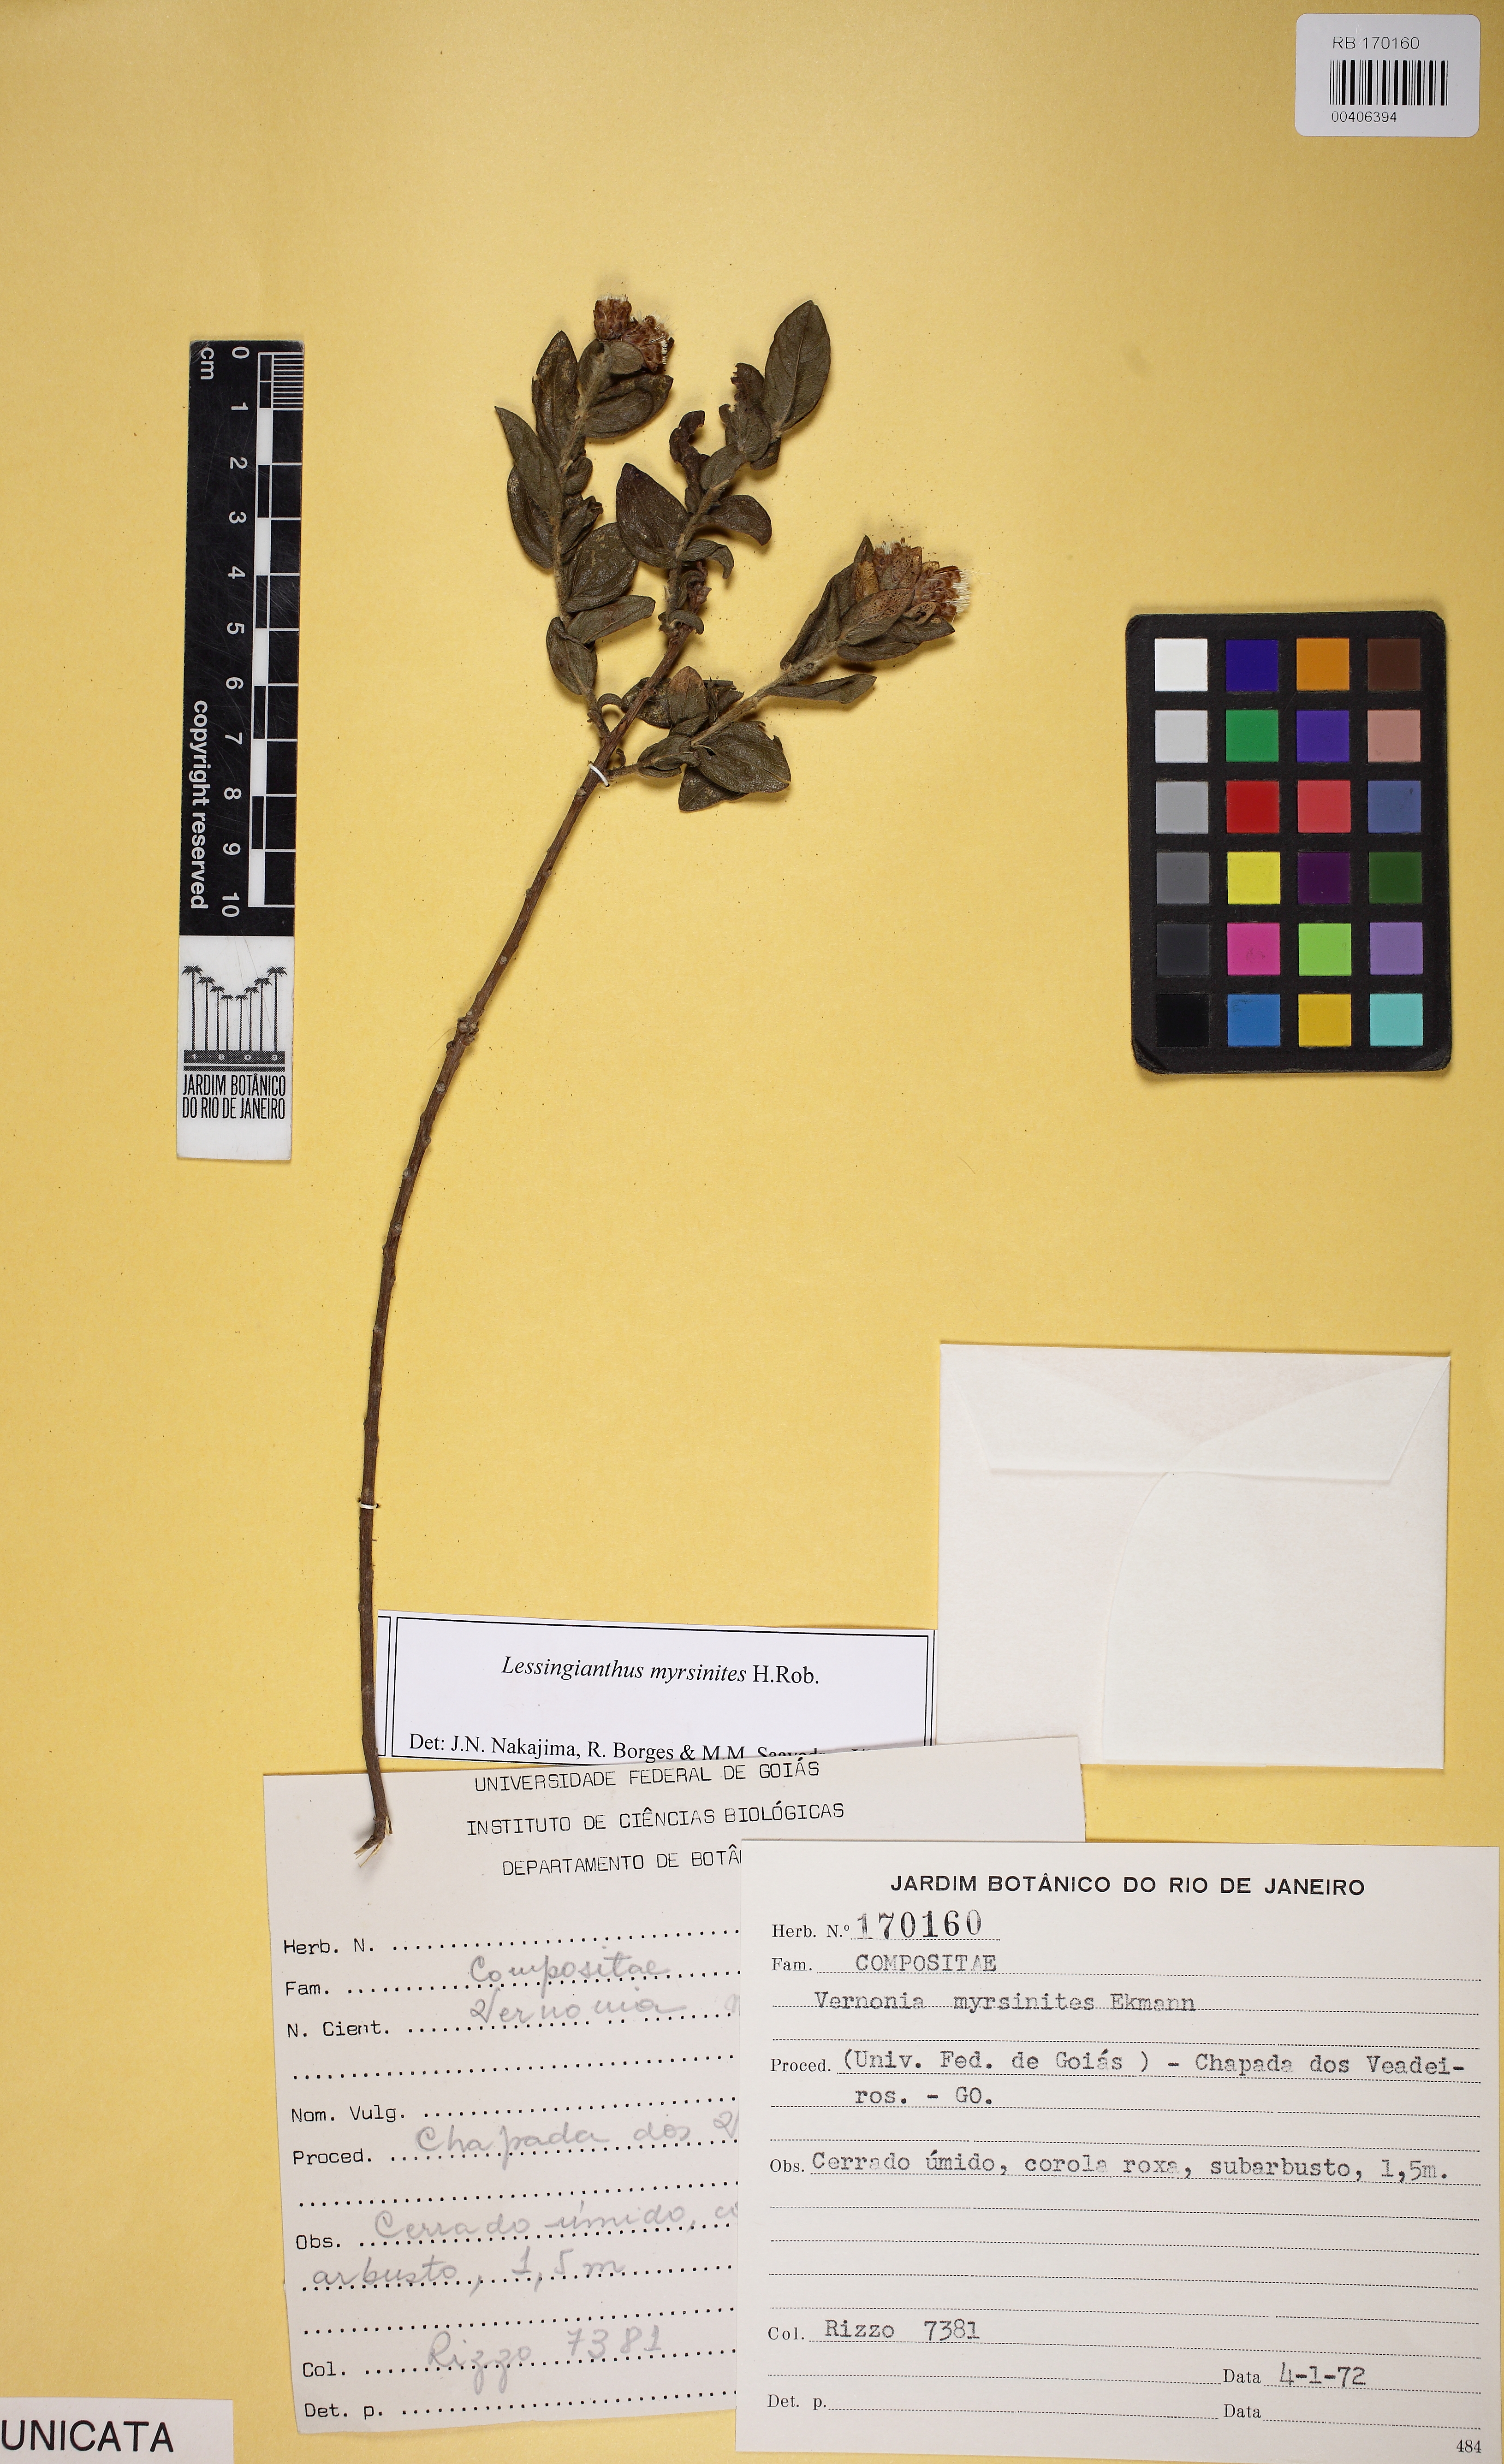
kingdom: Plantae
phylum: Tracheophyta
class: Magnoliopsida
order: Asterales
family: Asteraceae
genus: Lessingianthus
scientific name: Lessingianthus myrsinites
